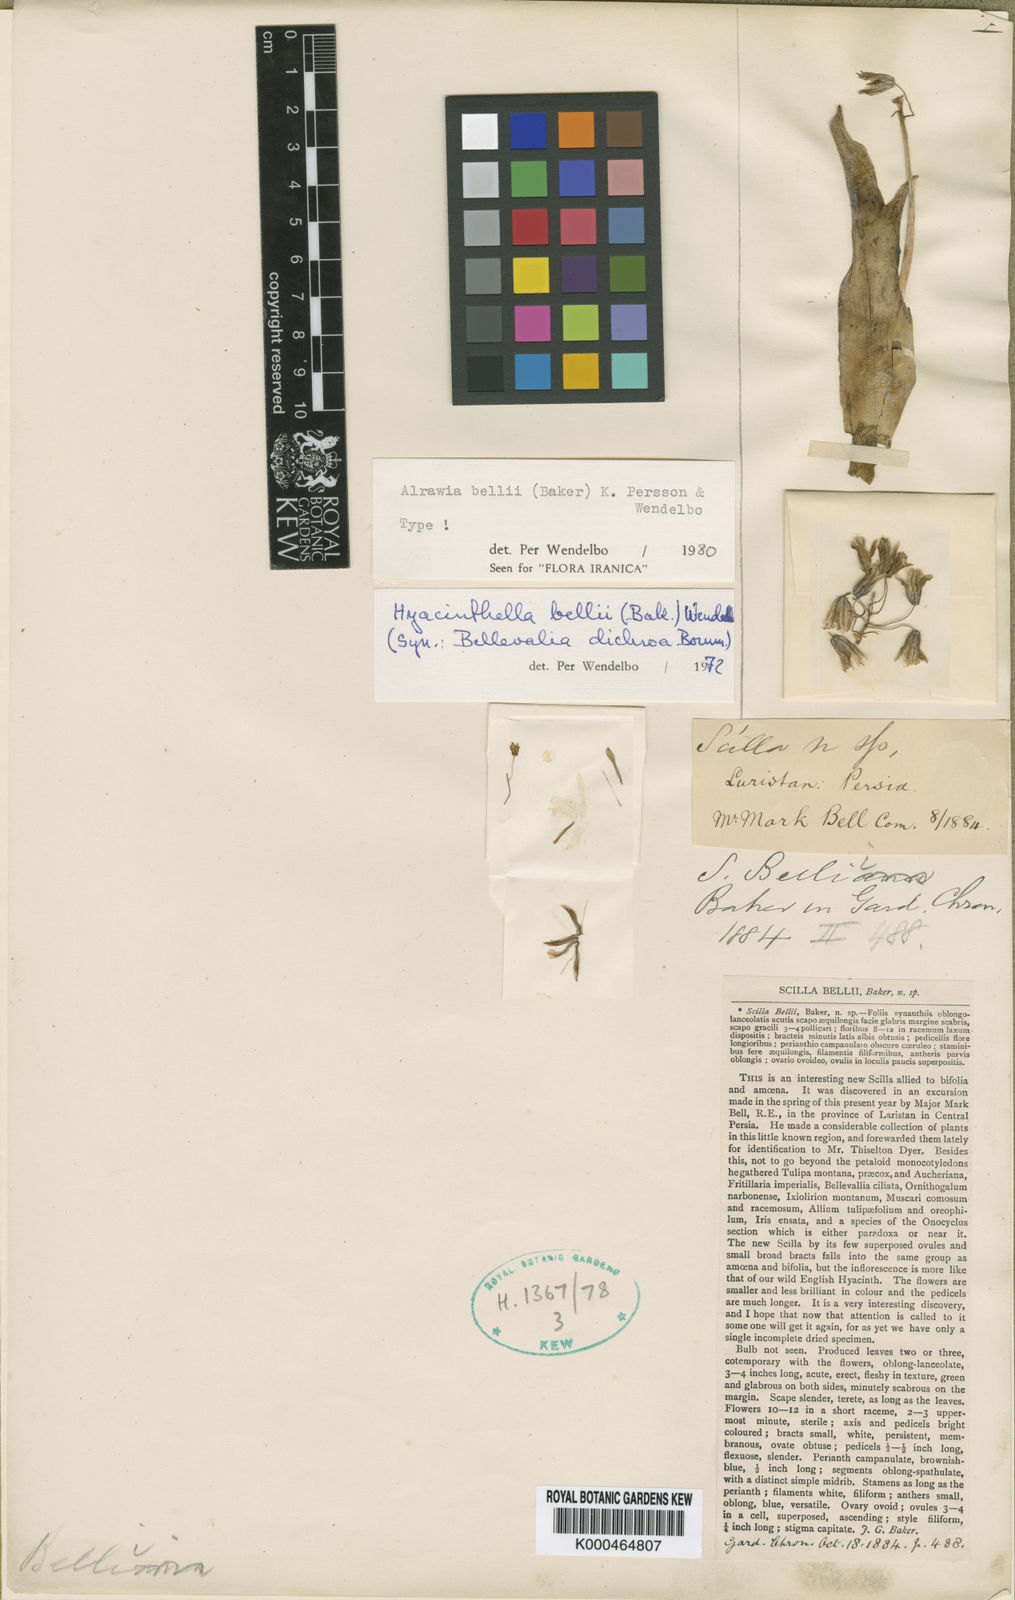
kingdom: Plantae
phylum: Tracheophyta
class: Liliopsida
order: Asparagales
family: Asparagaceae
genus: Alrawia
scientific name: Alrawia bellii
